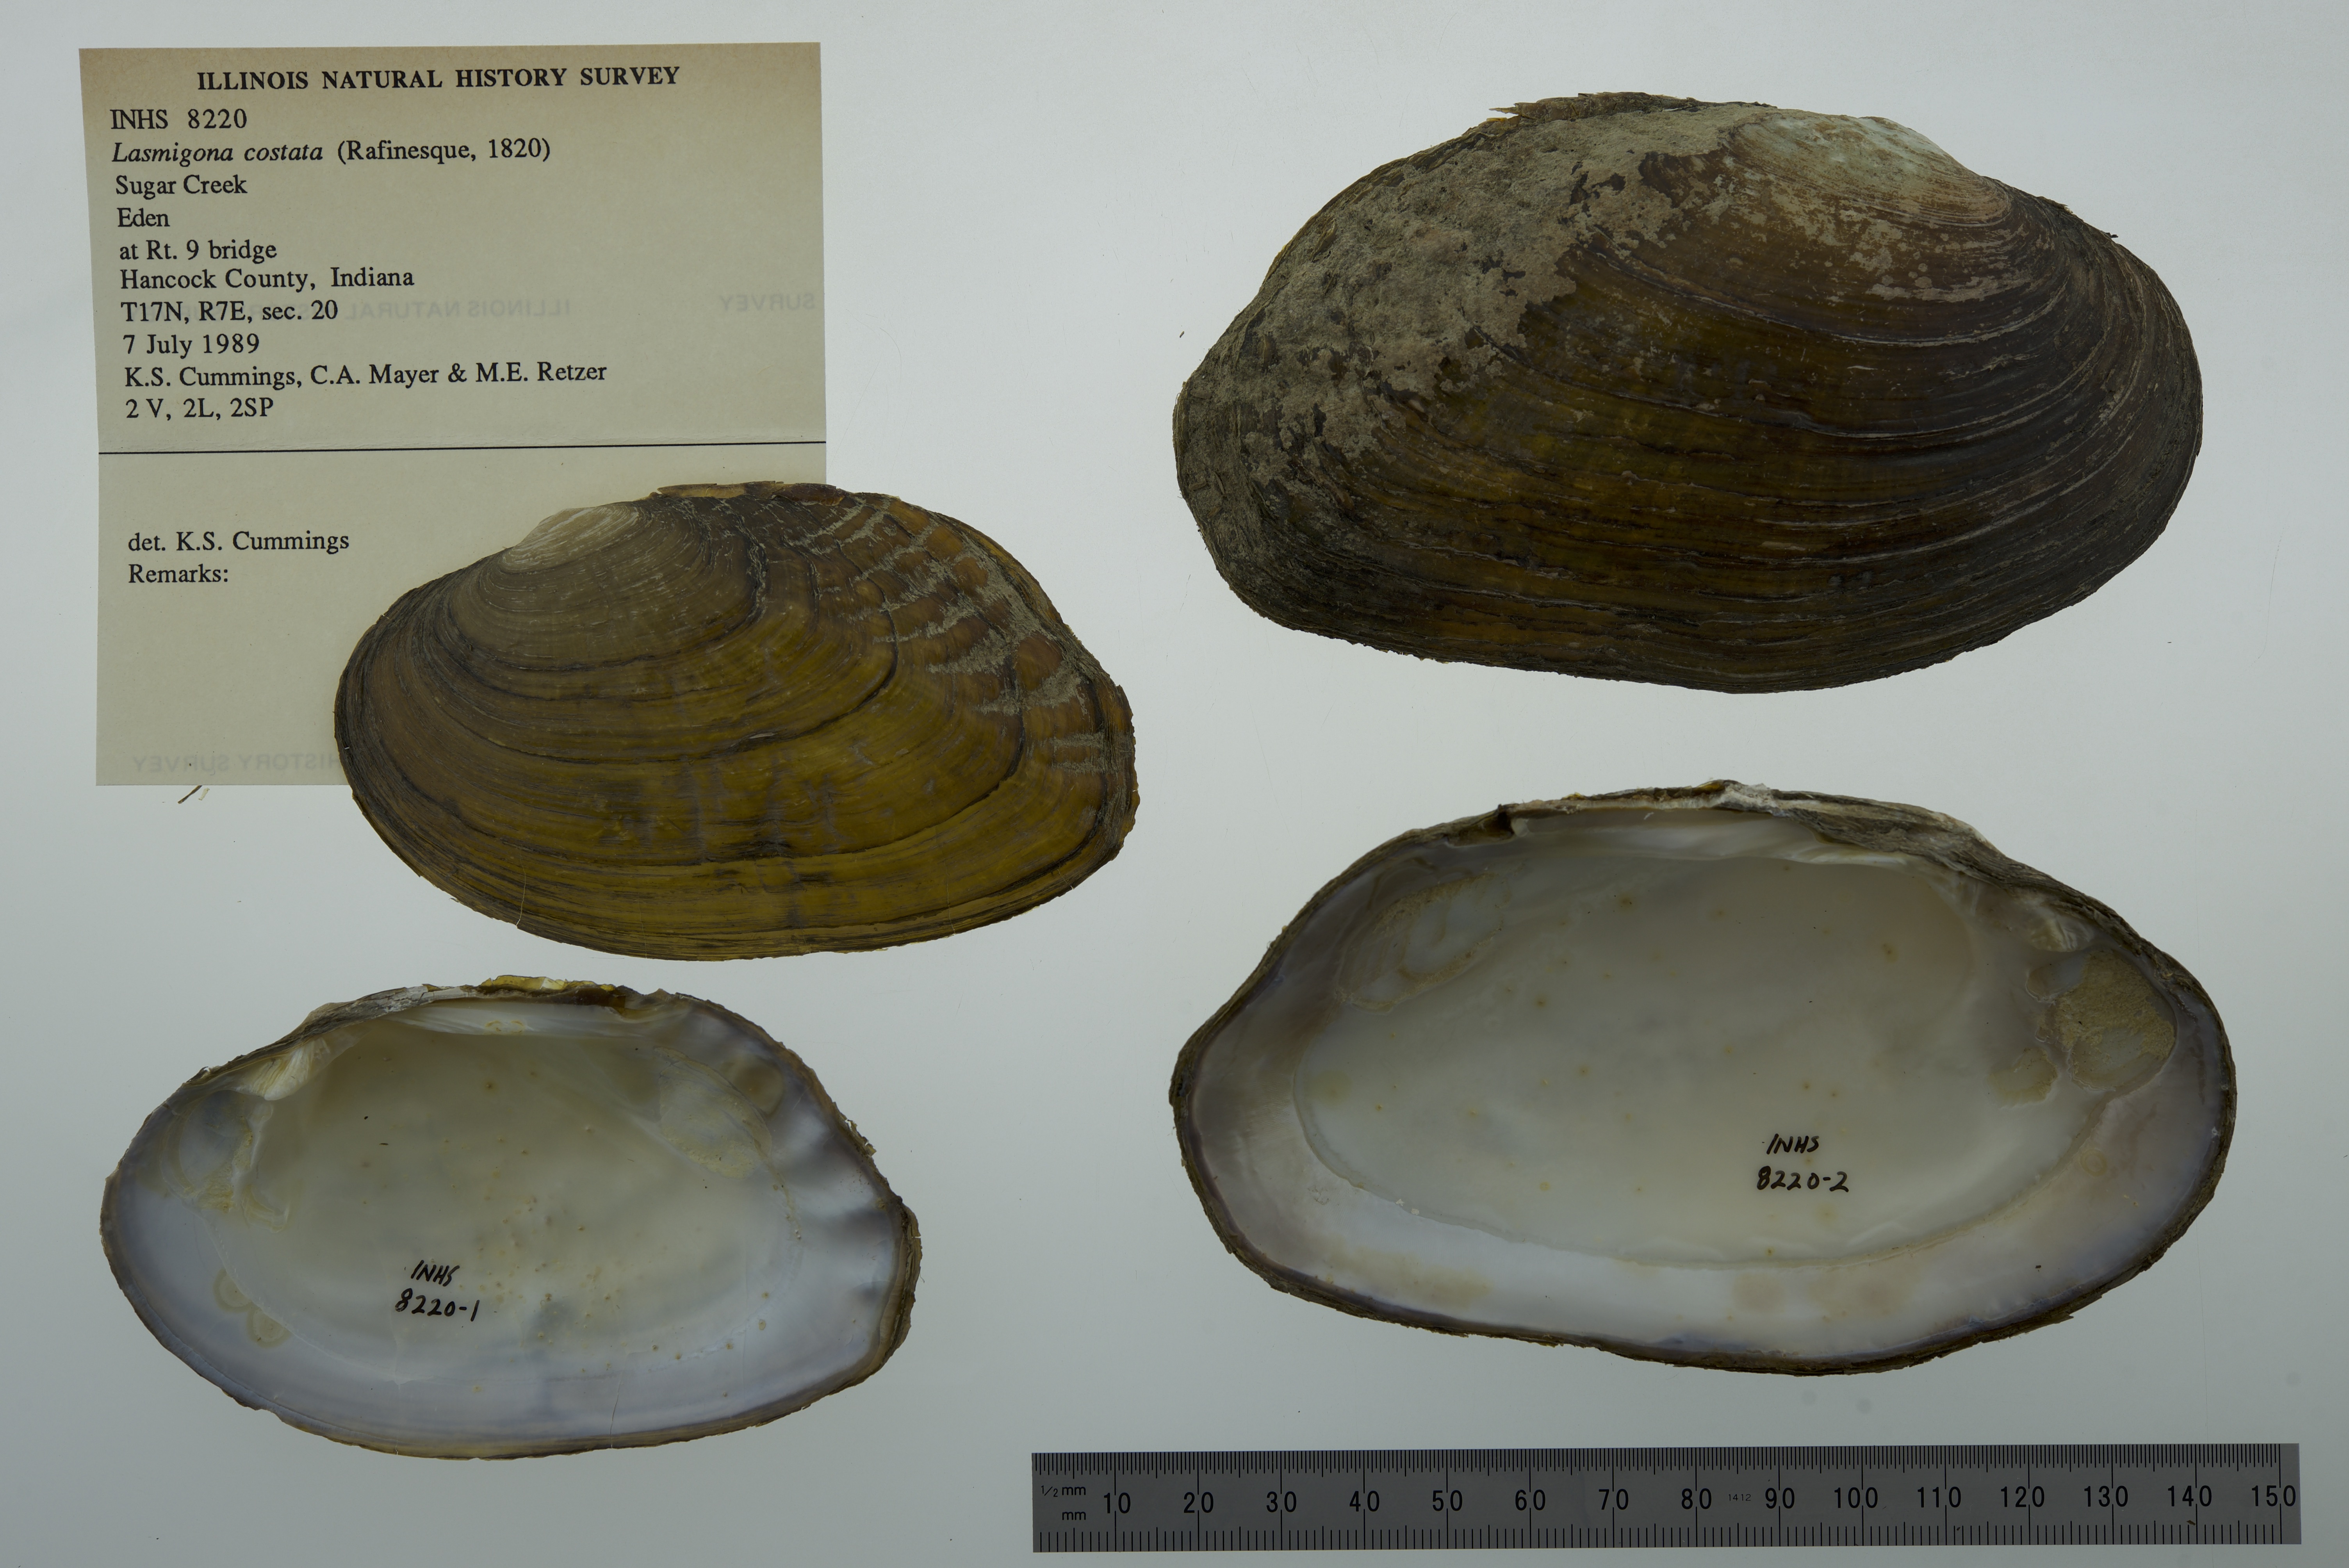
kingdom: Animalia
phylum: Mollusca
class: Bivalvia
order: Unionida
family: Unionidae
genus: Lasmigona
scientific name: Lasmigona costata
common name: Flutedshell
